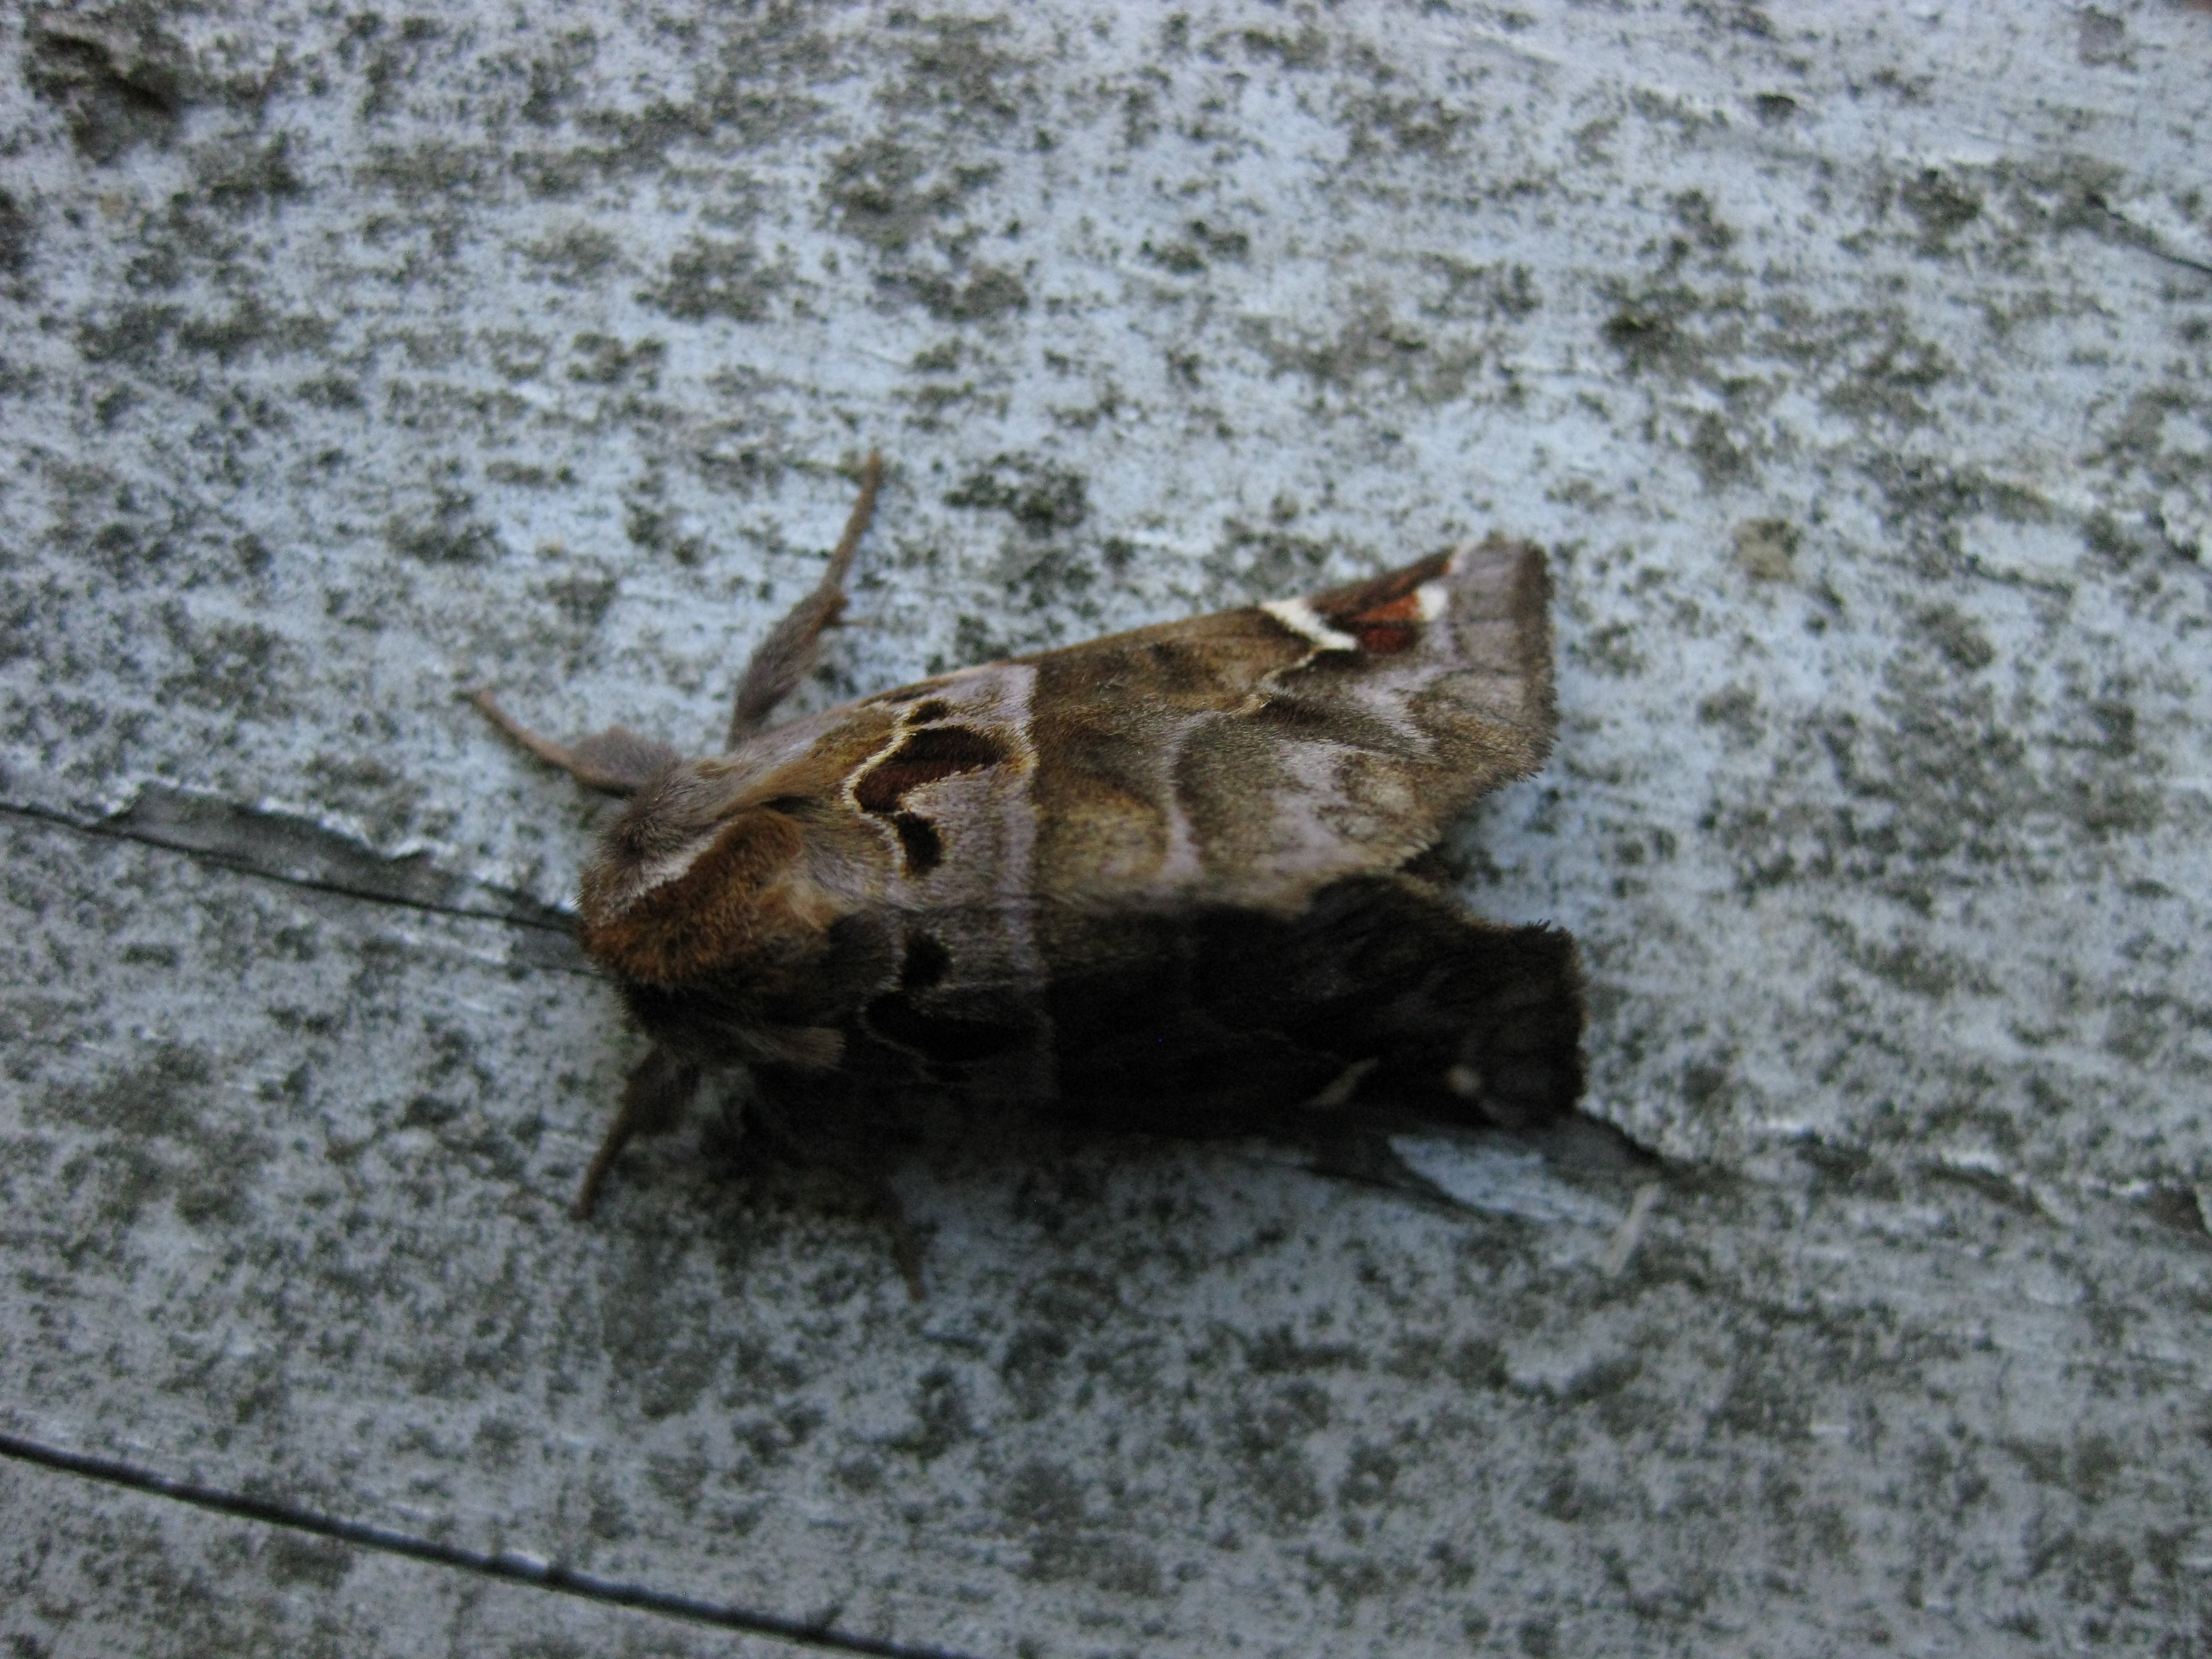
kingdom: Animalia
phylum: Arthropoda
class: Insecta
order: Lepidoptera
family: Notodontidae
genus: Pygaera
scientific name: Pygaera timon
